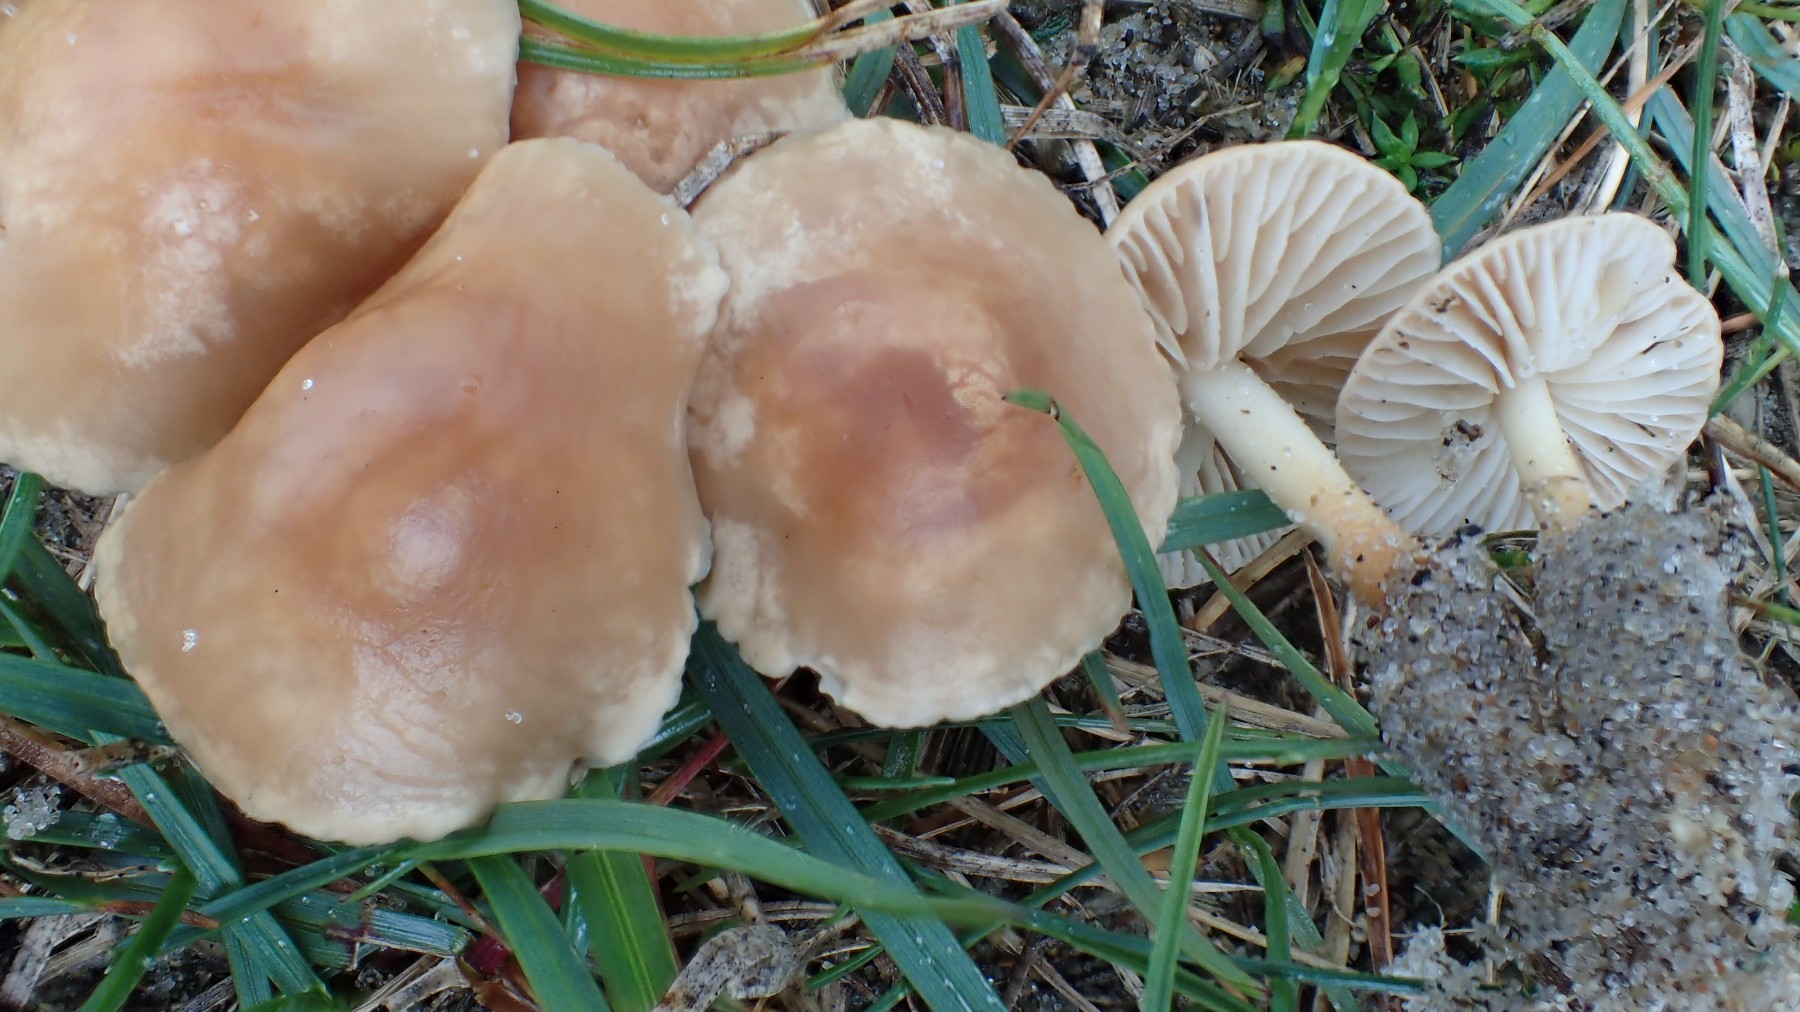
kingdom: Fungi
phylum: Basidiomycota
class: Agaricomycetes
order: Agaricales
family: Marasmiaceae
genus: Marasmius
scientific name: Marasmius oreades
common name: elledans-bruskhat
